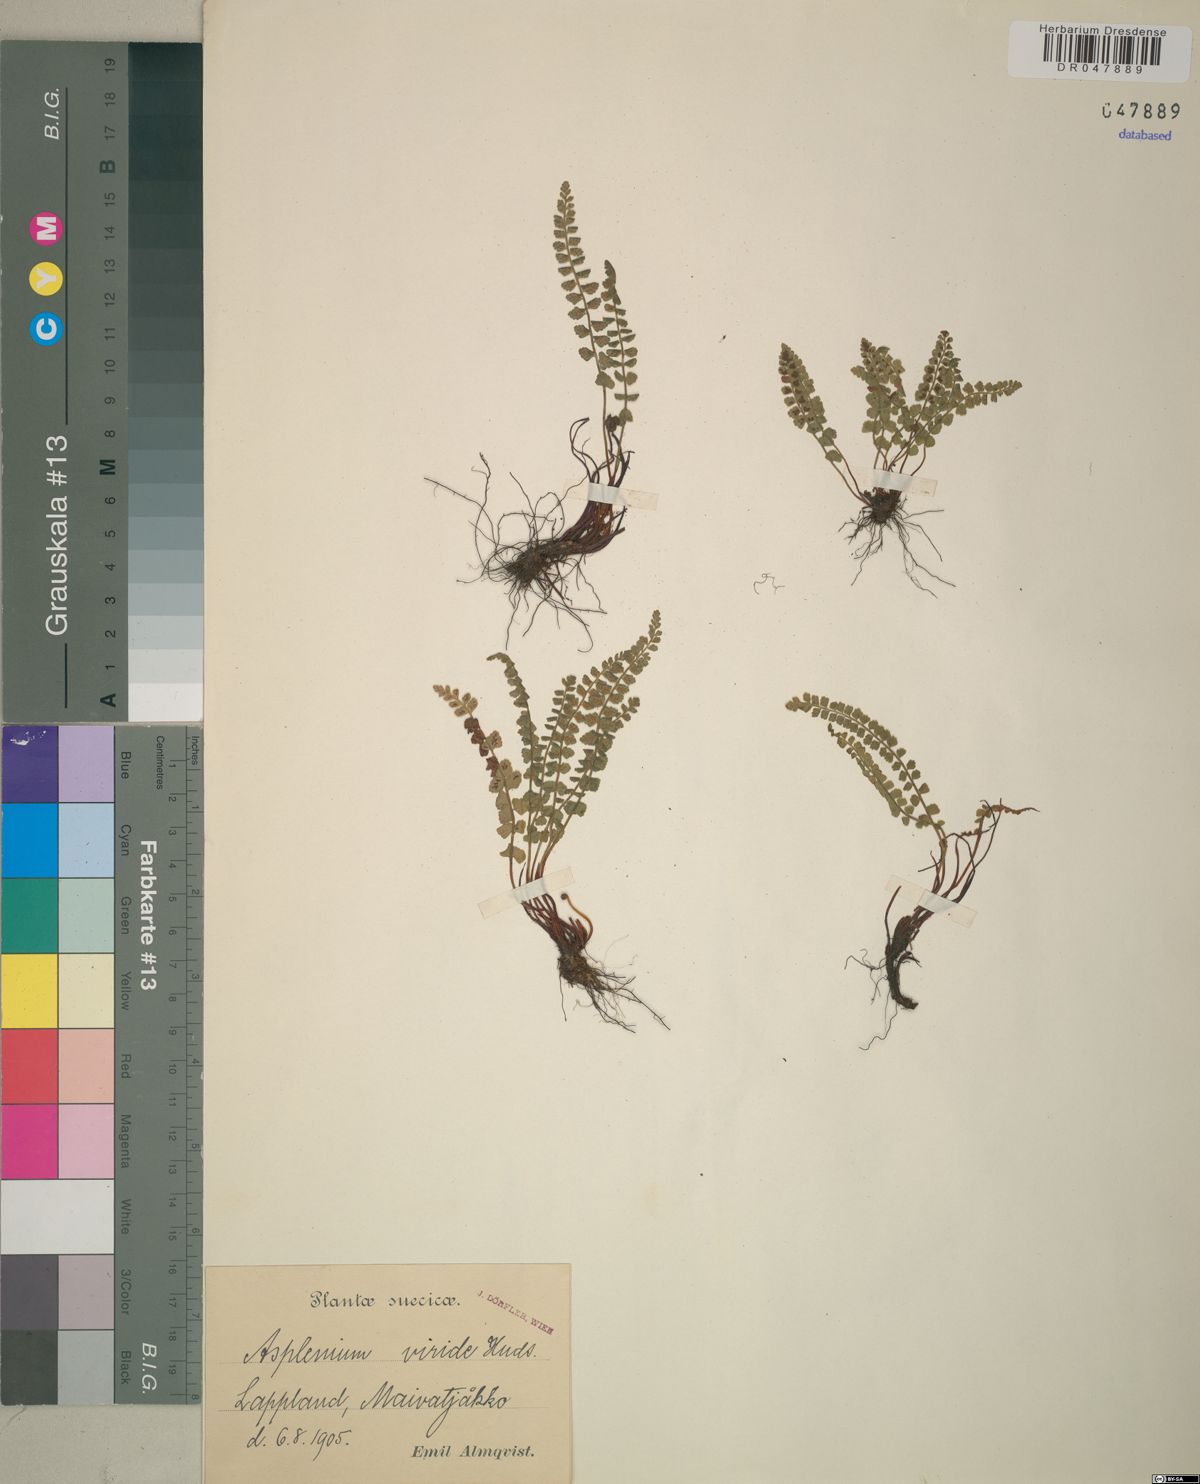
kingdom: Plantae
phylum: Tracheophyta
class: Polypodiopsida
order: Polypodiales
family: Aspleniaceae
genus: Asplenium
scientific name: Asplenium viride
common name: Green spleenwort
